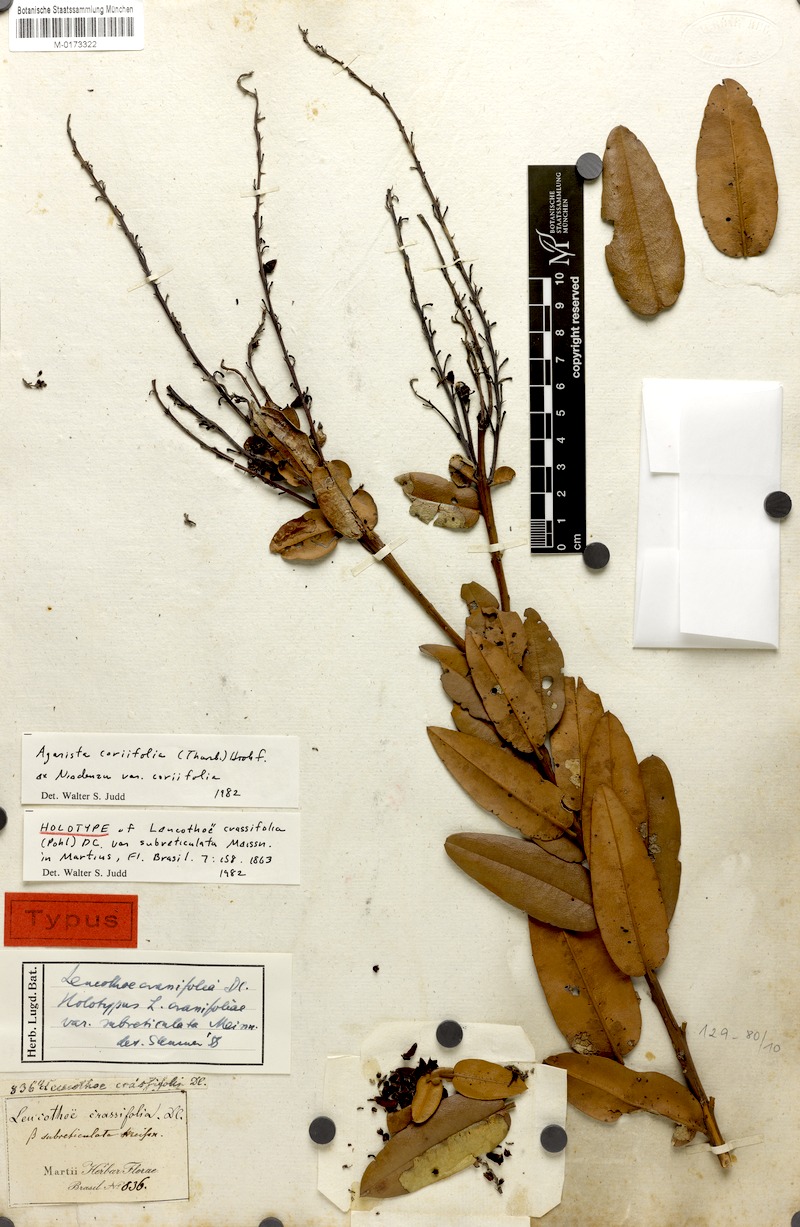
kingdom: Plantae
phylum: Tracheophyta
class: Magnoliopsida
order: Ericales
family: Ericaceae
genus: Agarista
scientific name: Agarista coriifolia
